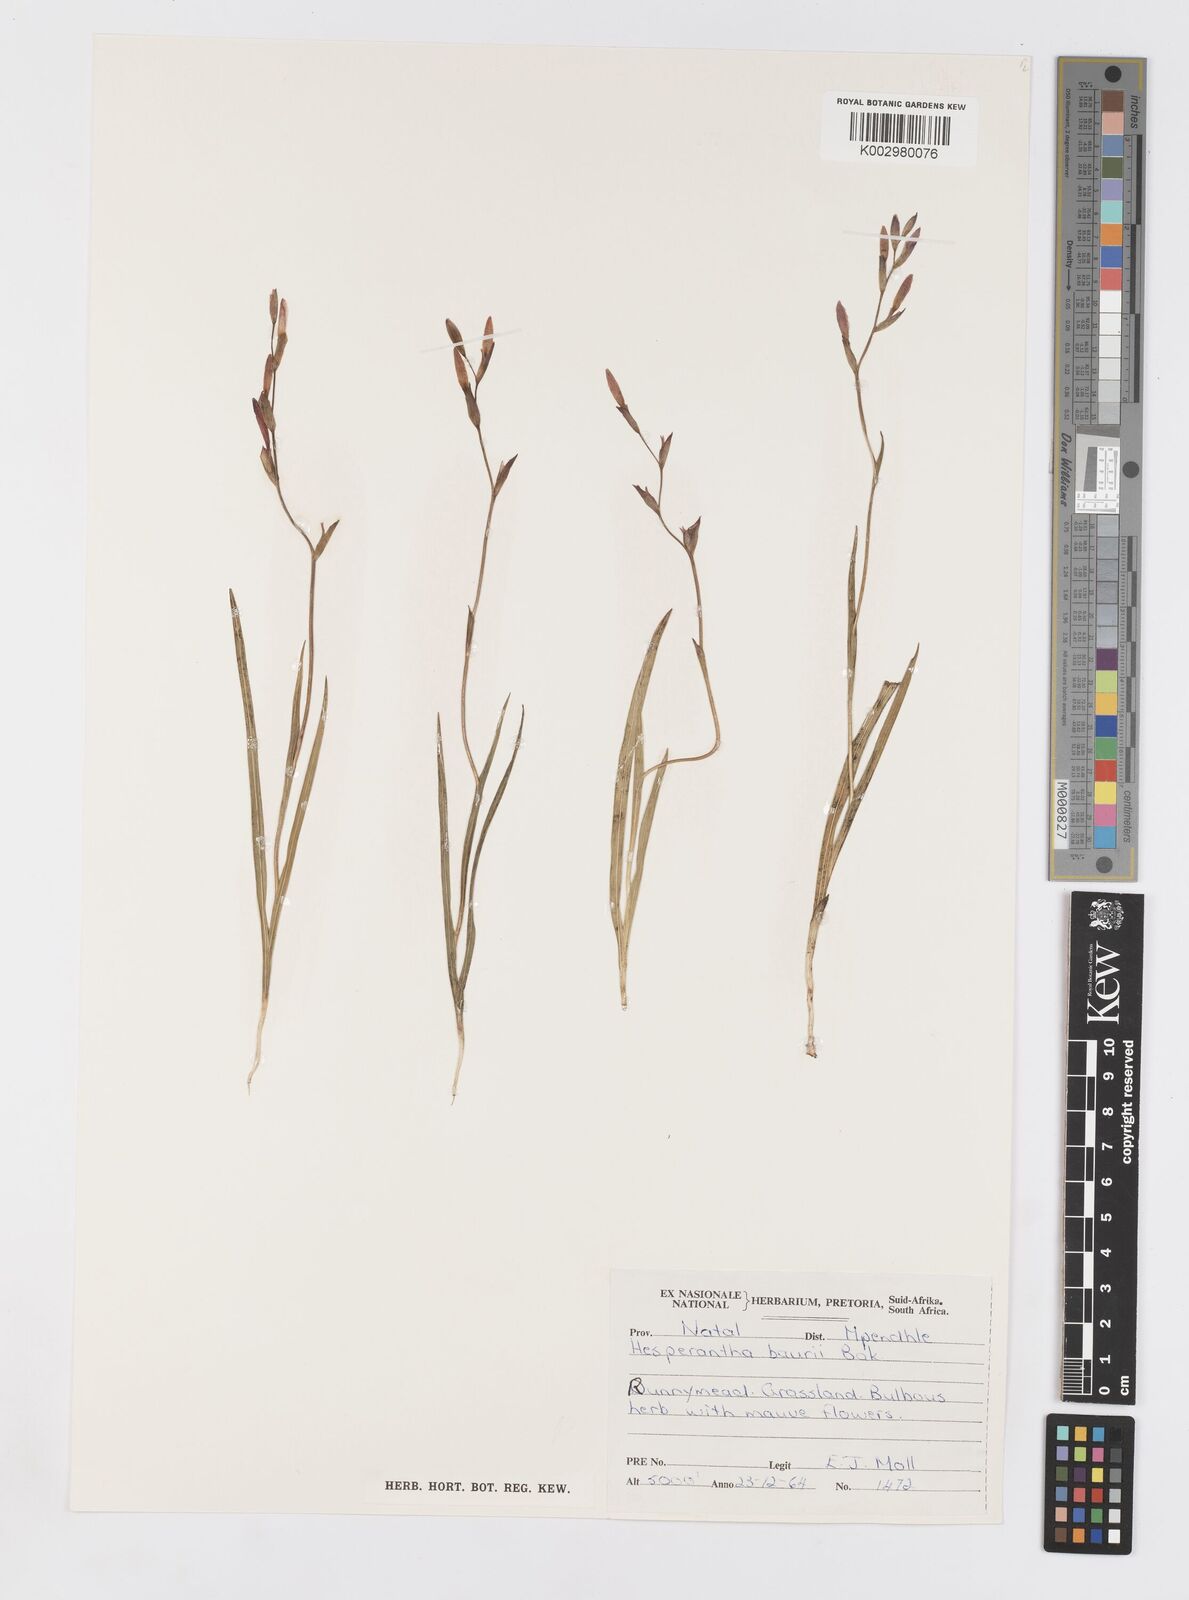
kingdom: Plantae
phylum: Tracheophyta
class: Liliopsida
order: Asparagales
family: Iridaceae
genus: Hesperantha
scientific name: Hesperantha glareosa
